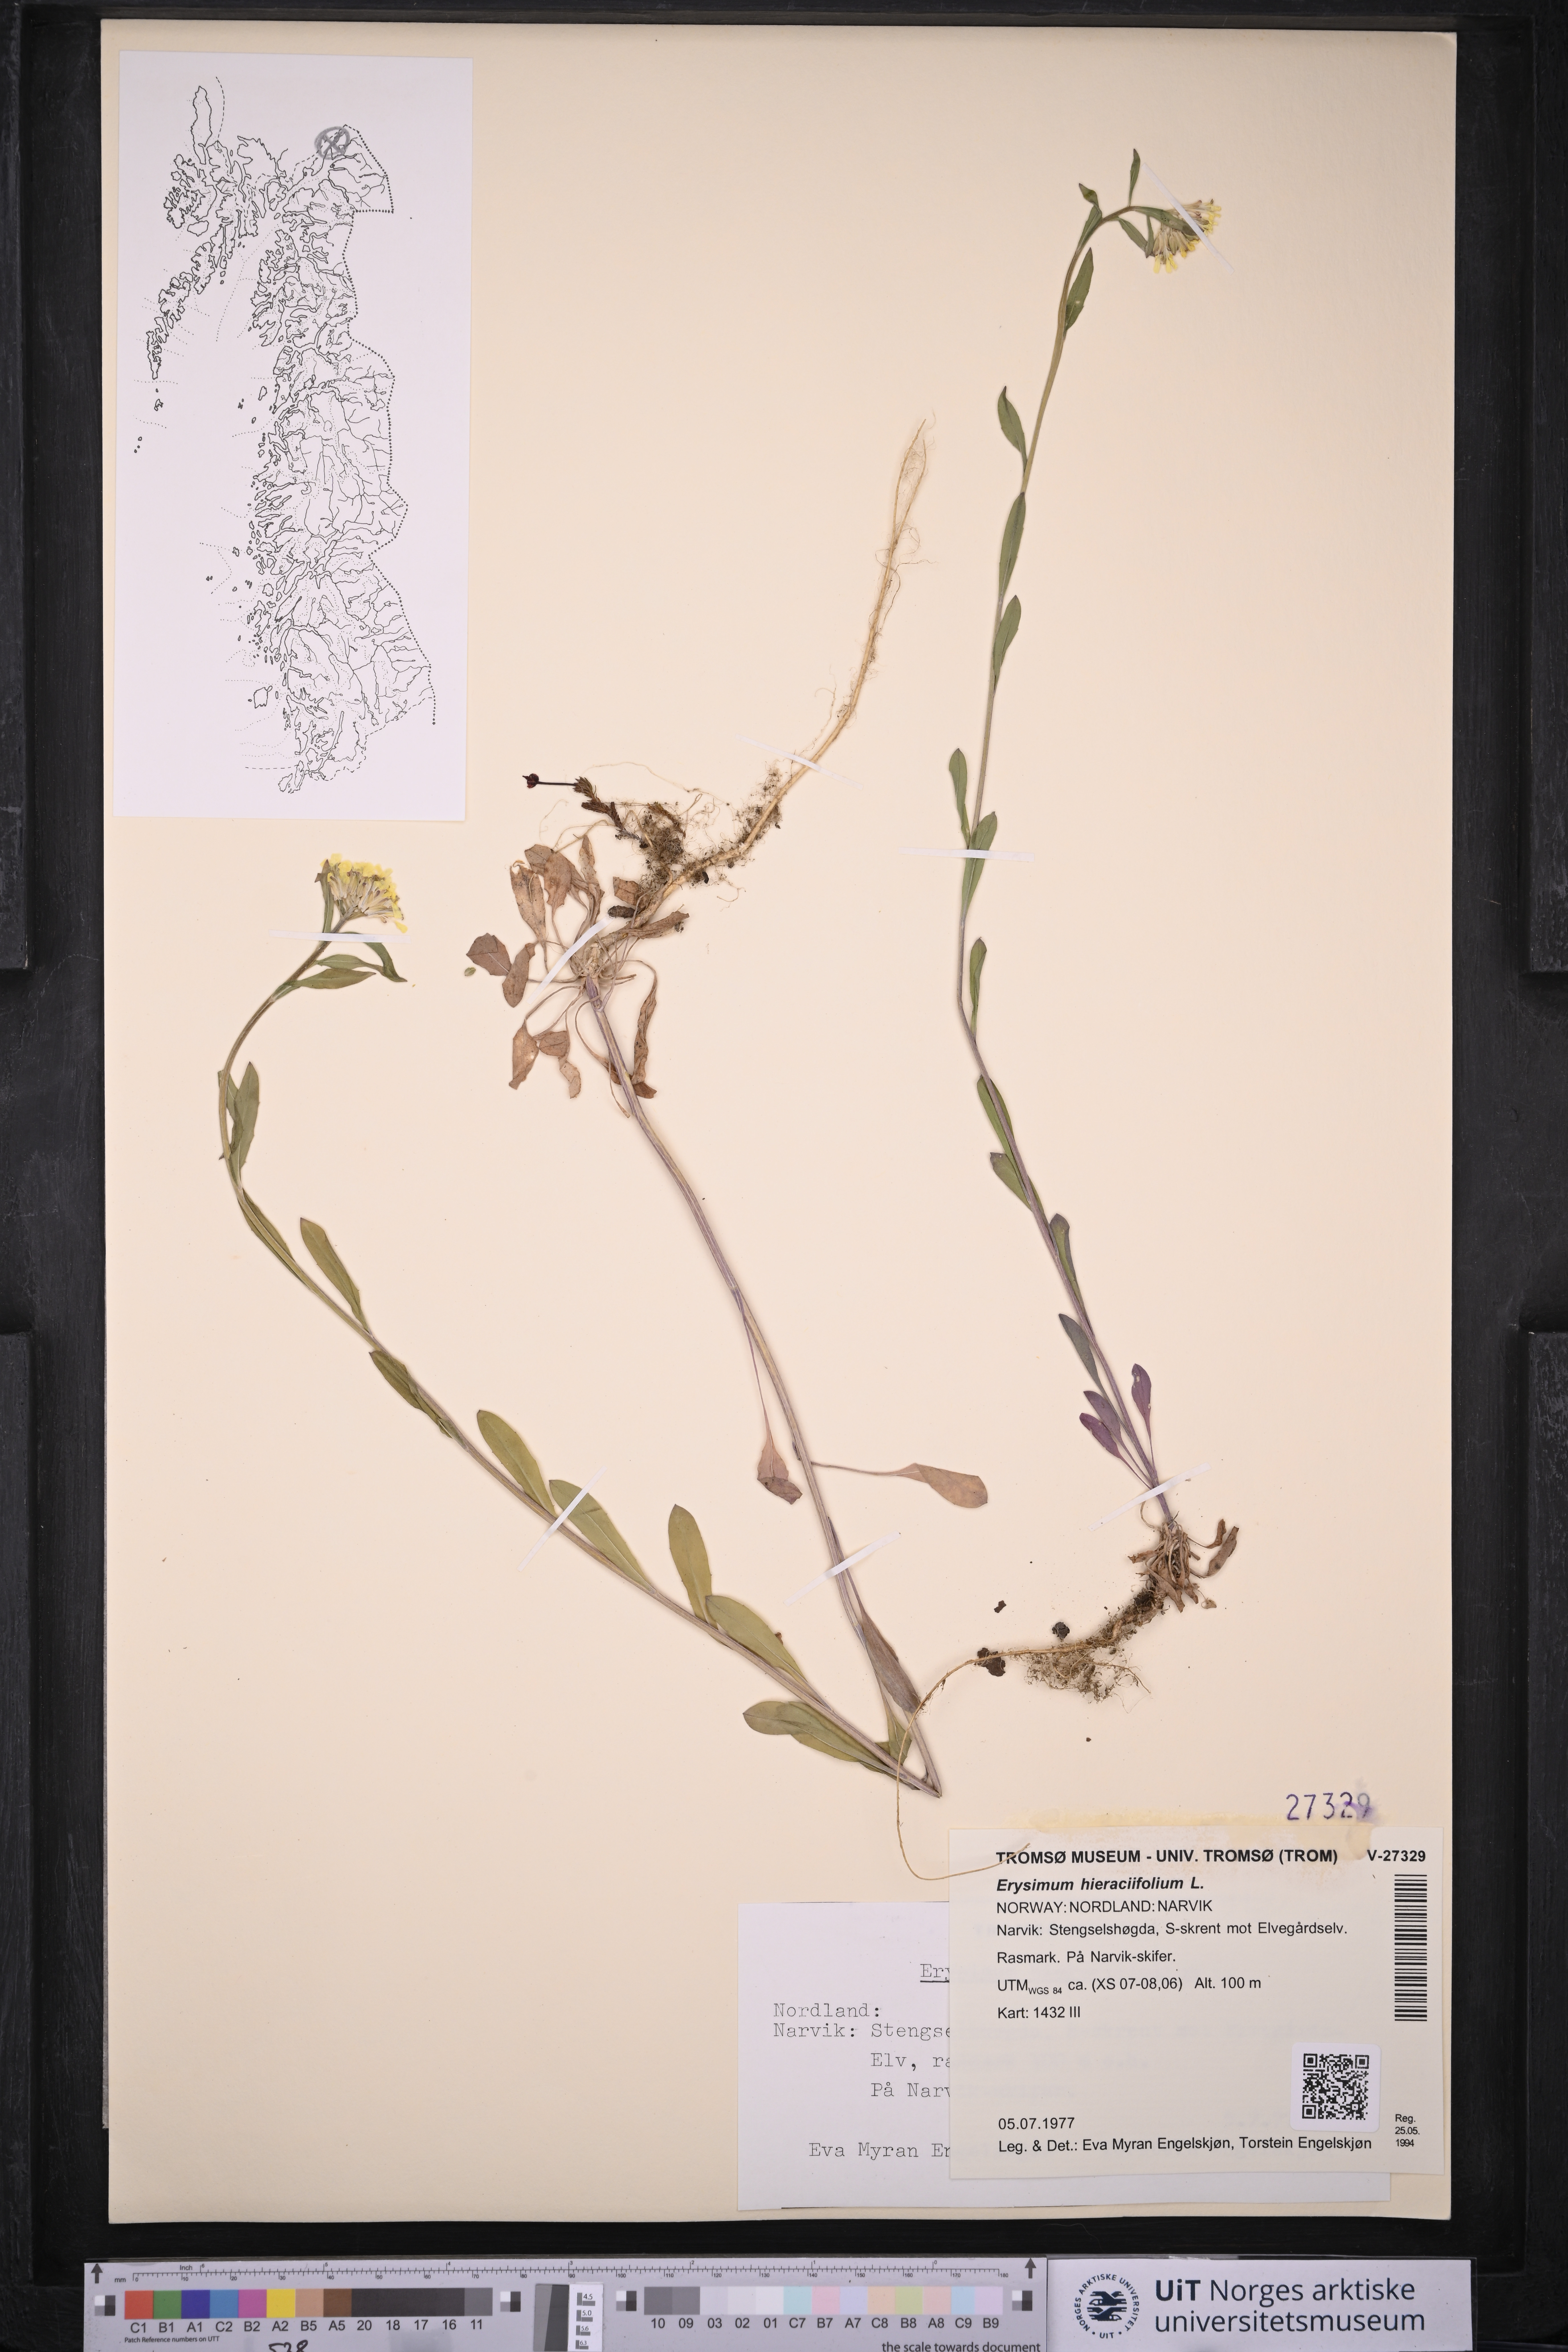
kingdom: Plantae
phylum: Tracheophyta
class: Magnoliopsida
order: Brassicales
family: Brassicaceae
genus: Erysimum
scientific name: Erysimum virgatum
